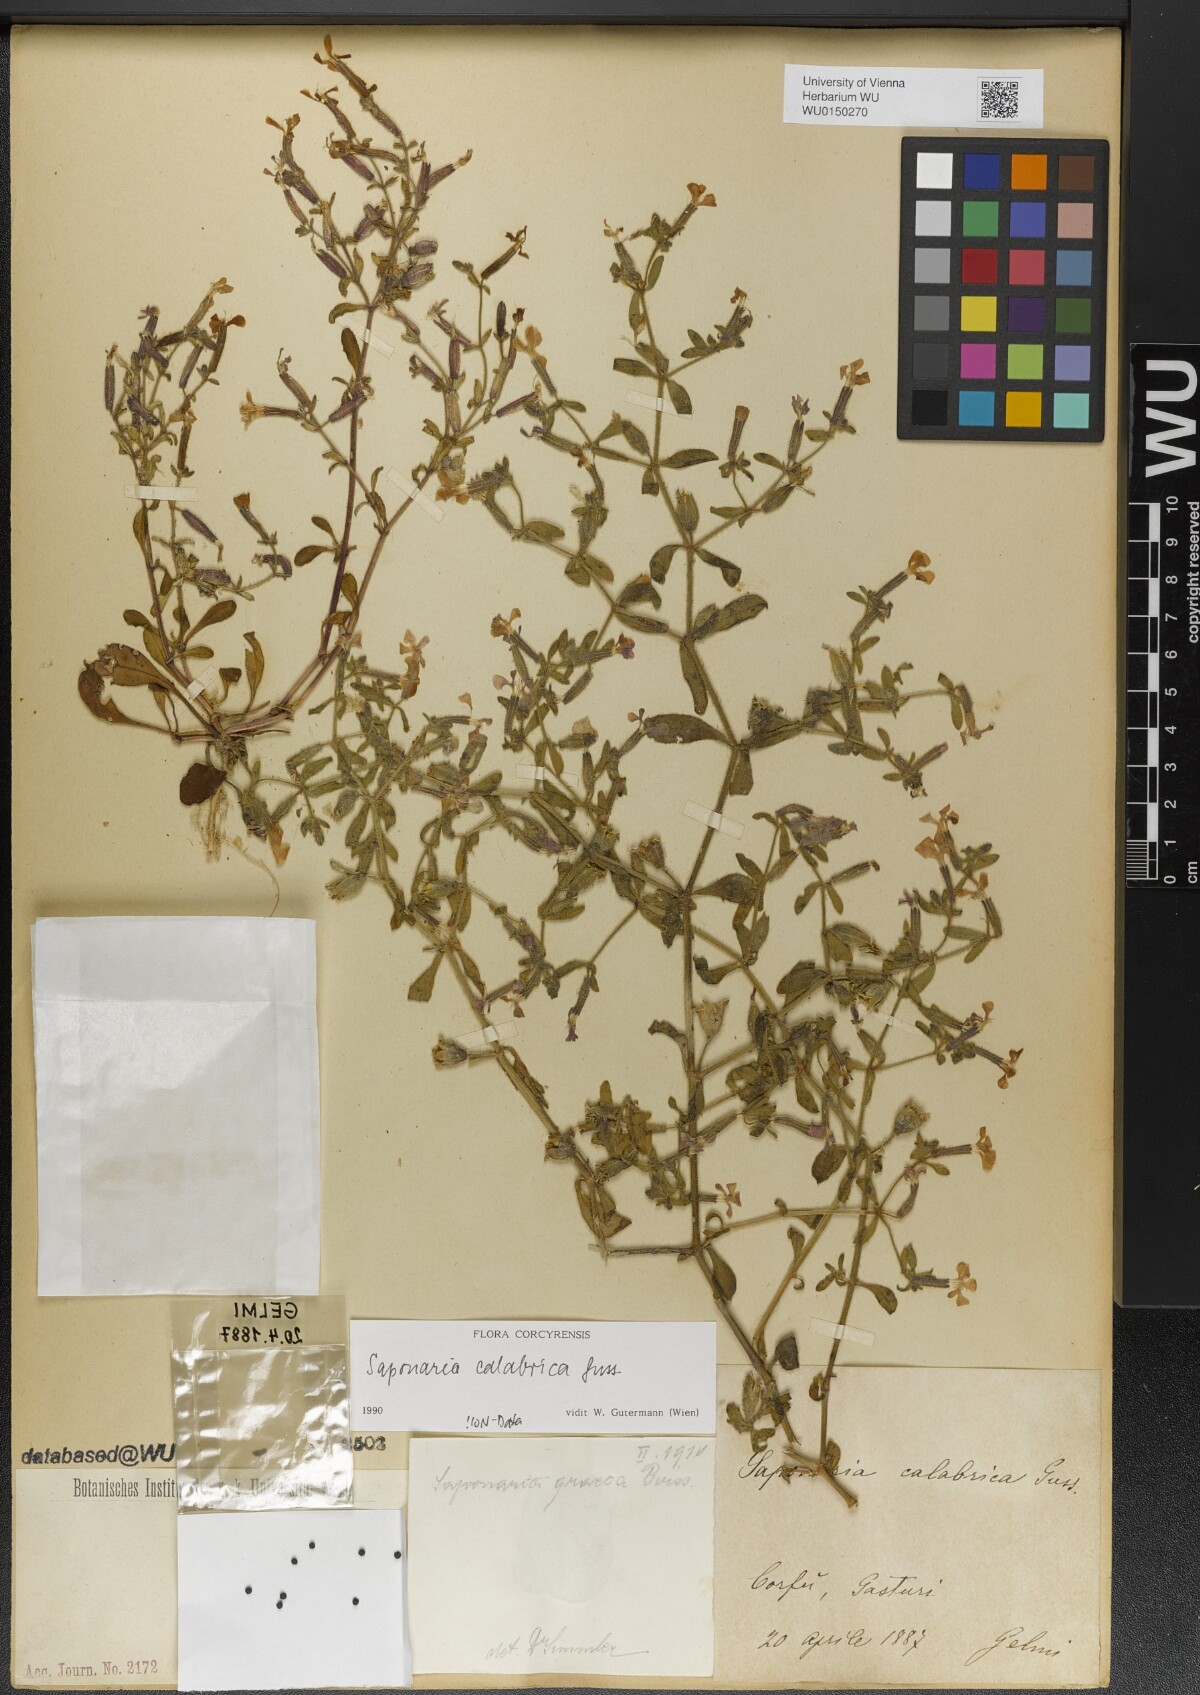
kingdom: Plantae
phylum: Tracheophyta
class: Magnoliopsida
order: Caryophyllales
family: Caryophyllaceae
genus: Saponaria
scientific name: Saponaria calabrica
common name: Adriatic soapwort
